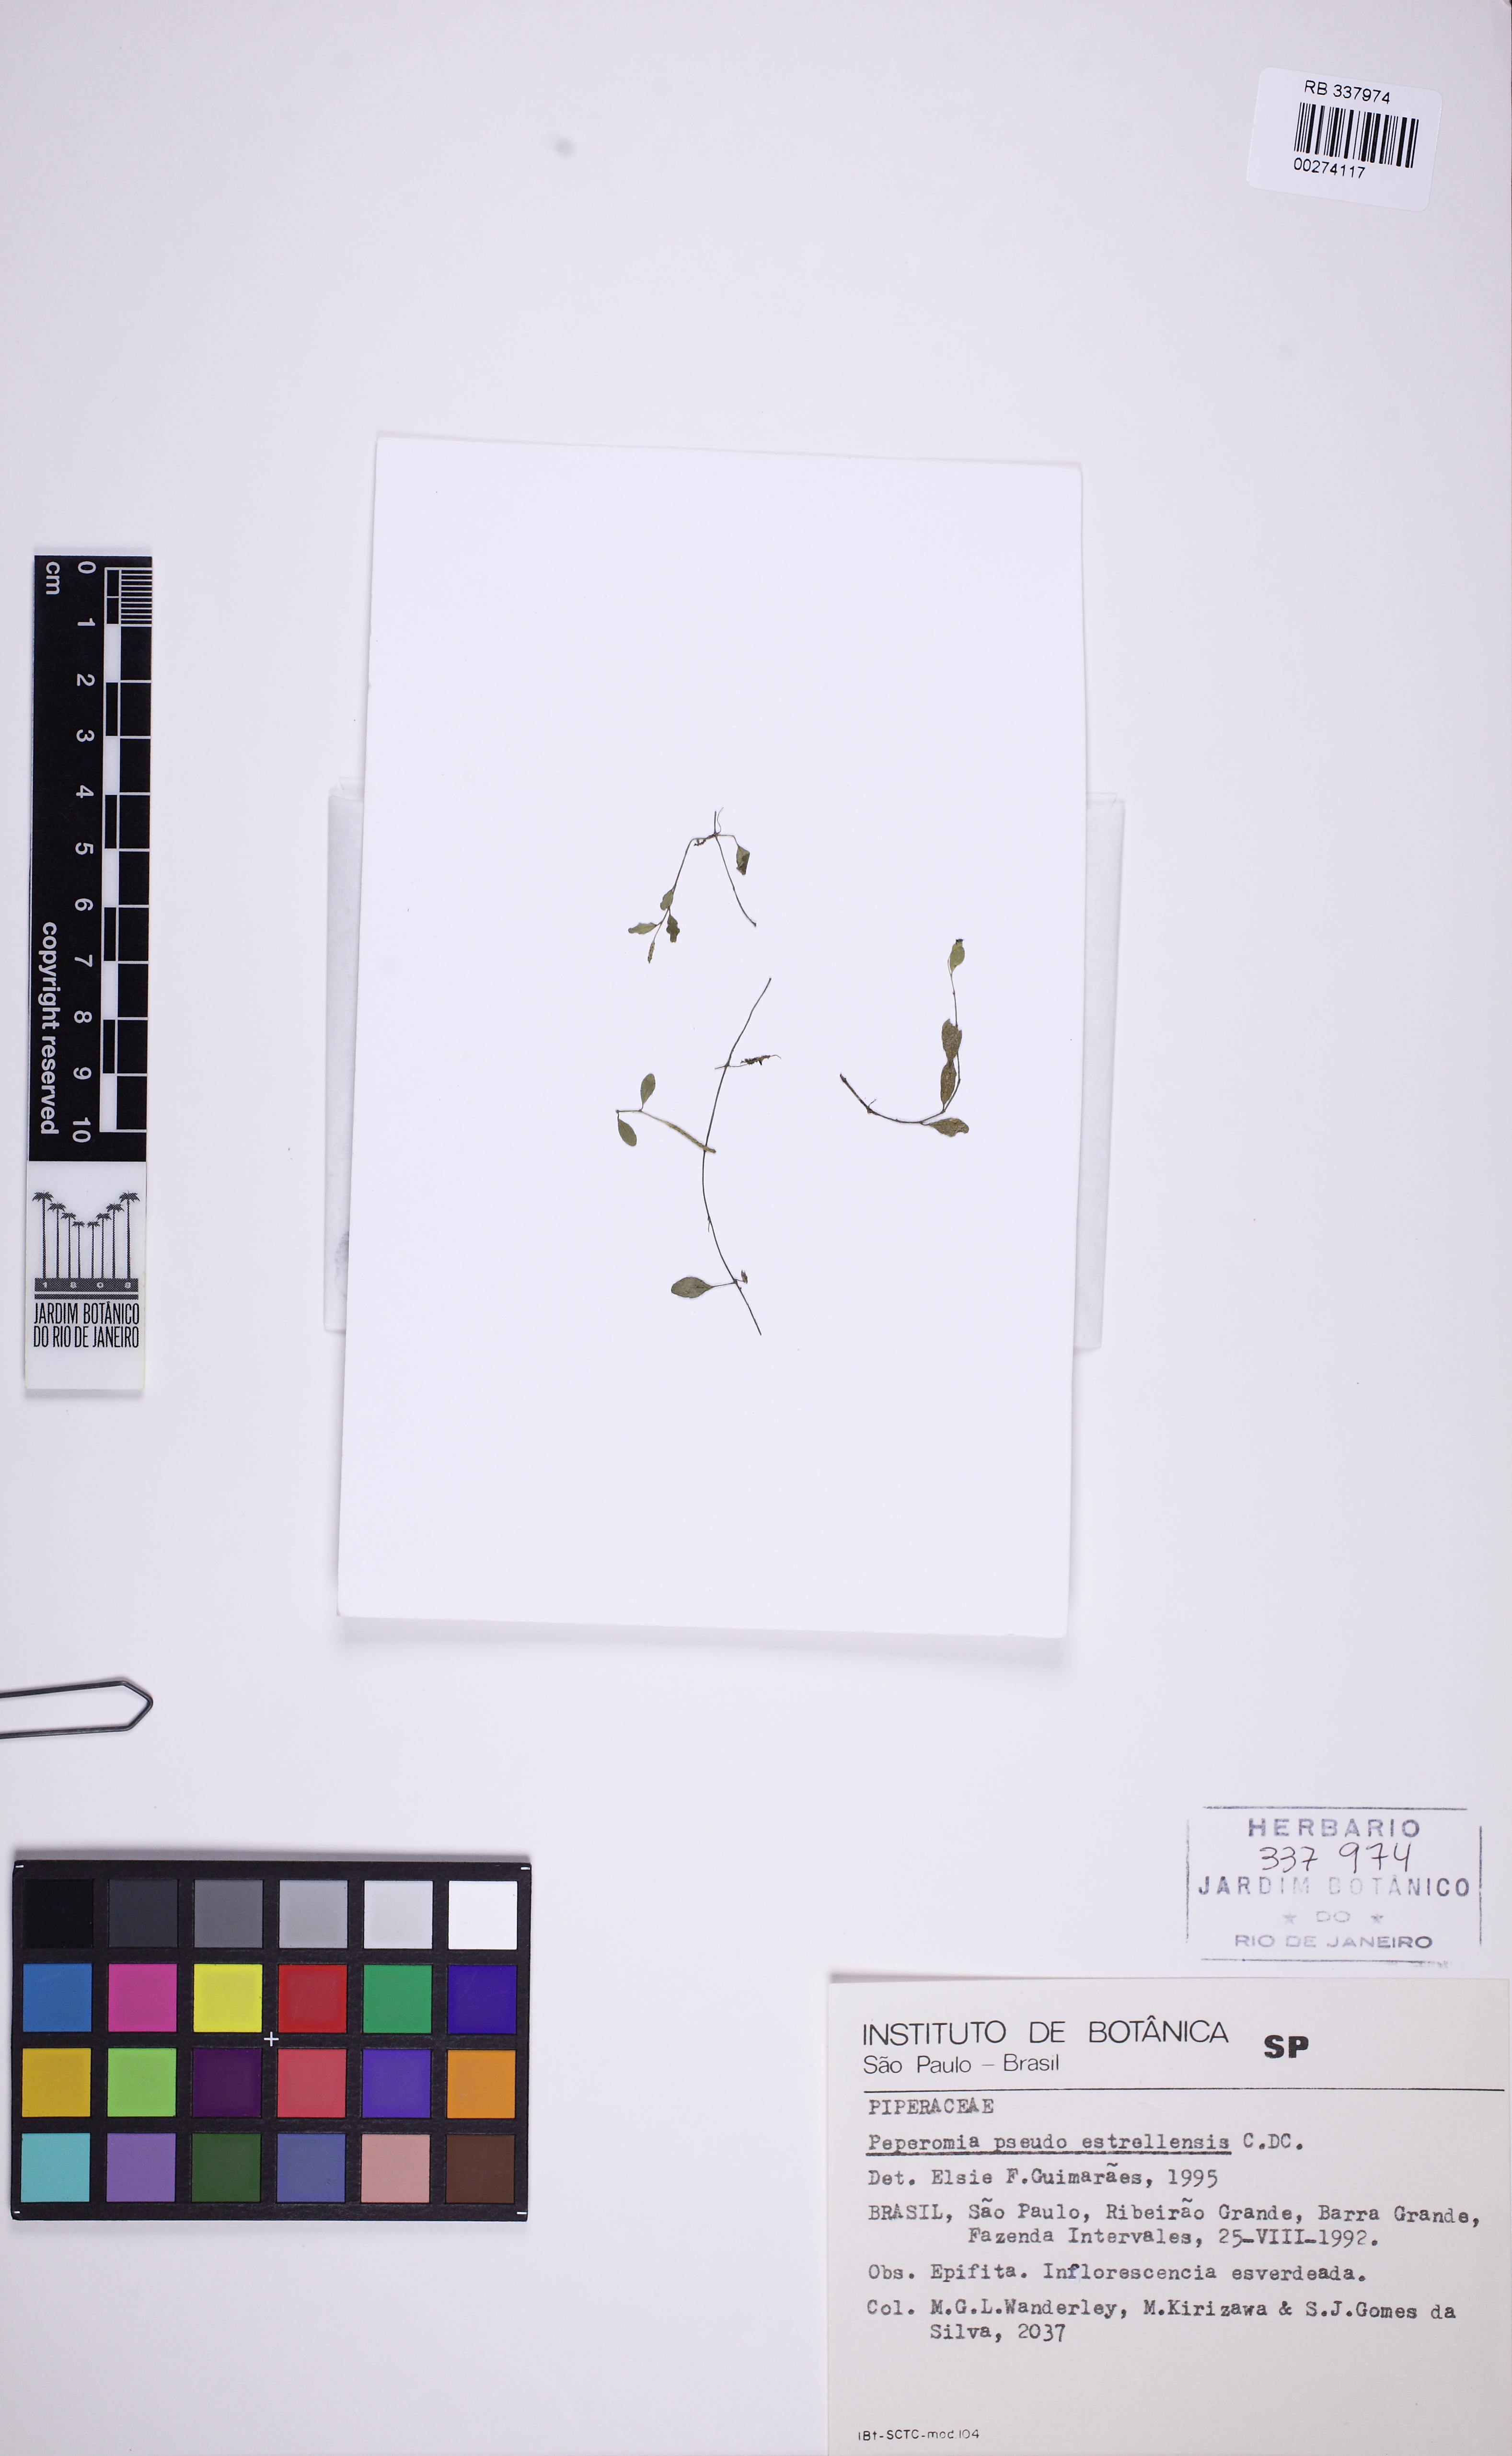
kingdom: Plantae
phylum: Tracheophyta
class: Magnoliopsida
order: Piperales
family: Piperaceae
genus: Peperomia
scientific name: Peperomia pseudoestrellensis
